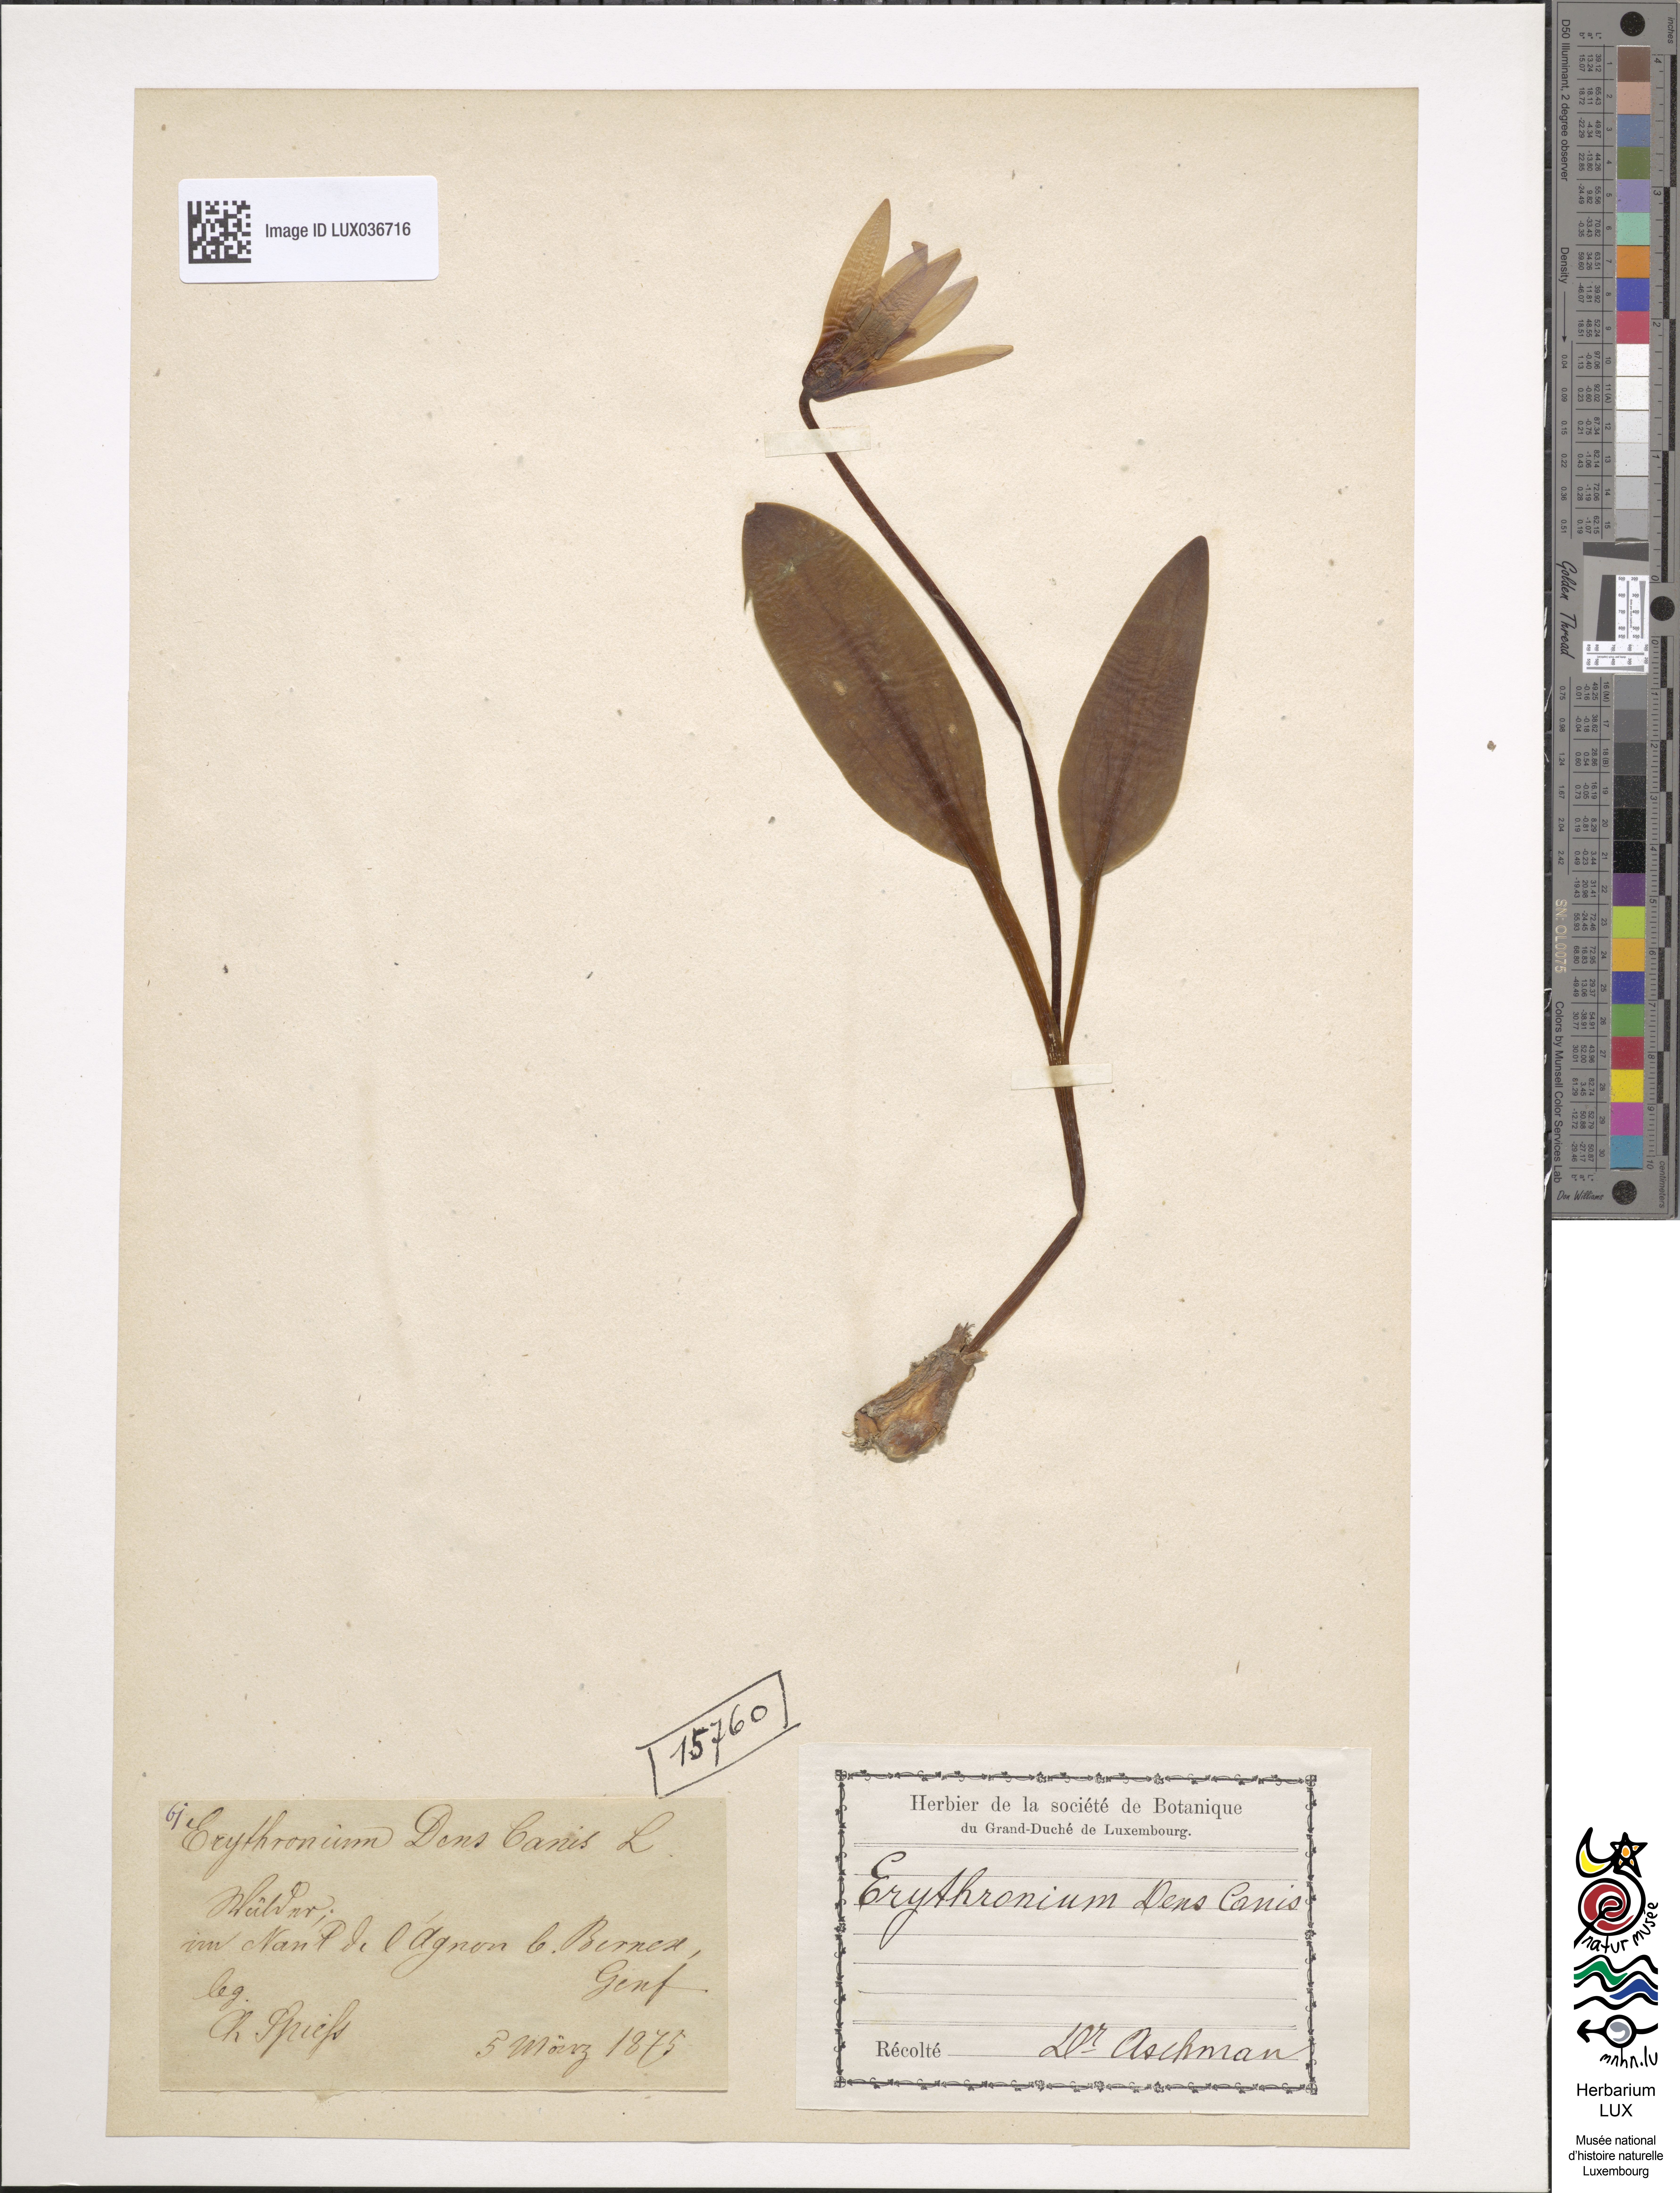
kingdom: Plantae
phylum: Tracheophyta
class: Liliopsida
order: Liliales
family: Liliaceae
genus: Erythronium
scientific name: Erythronium dens-canis
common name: Dog's-tooth-violet
